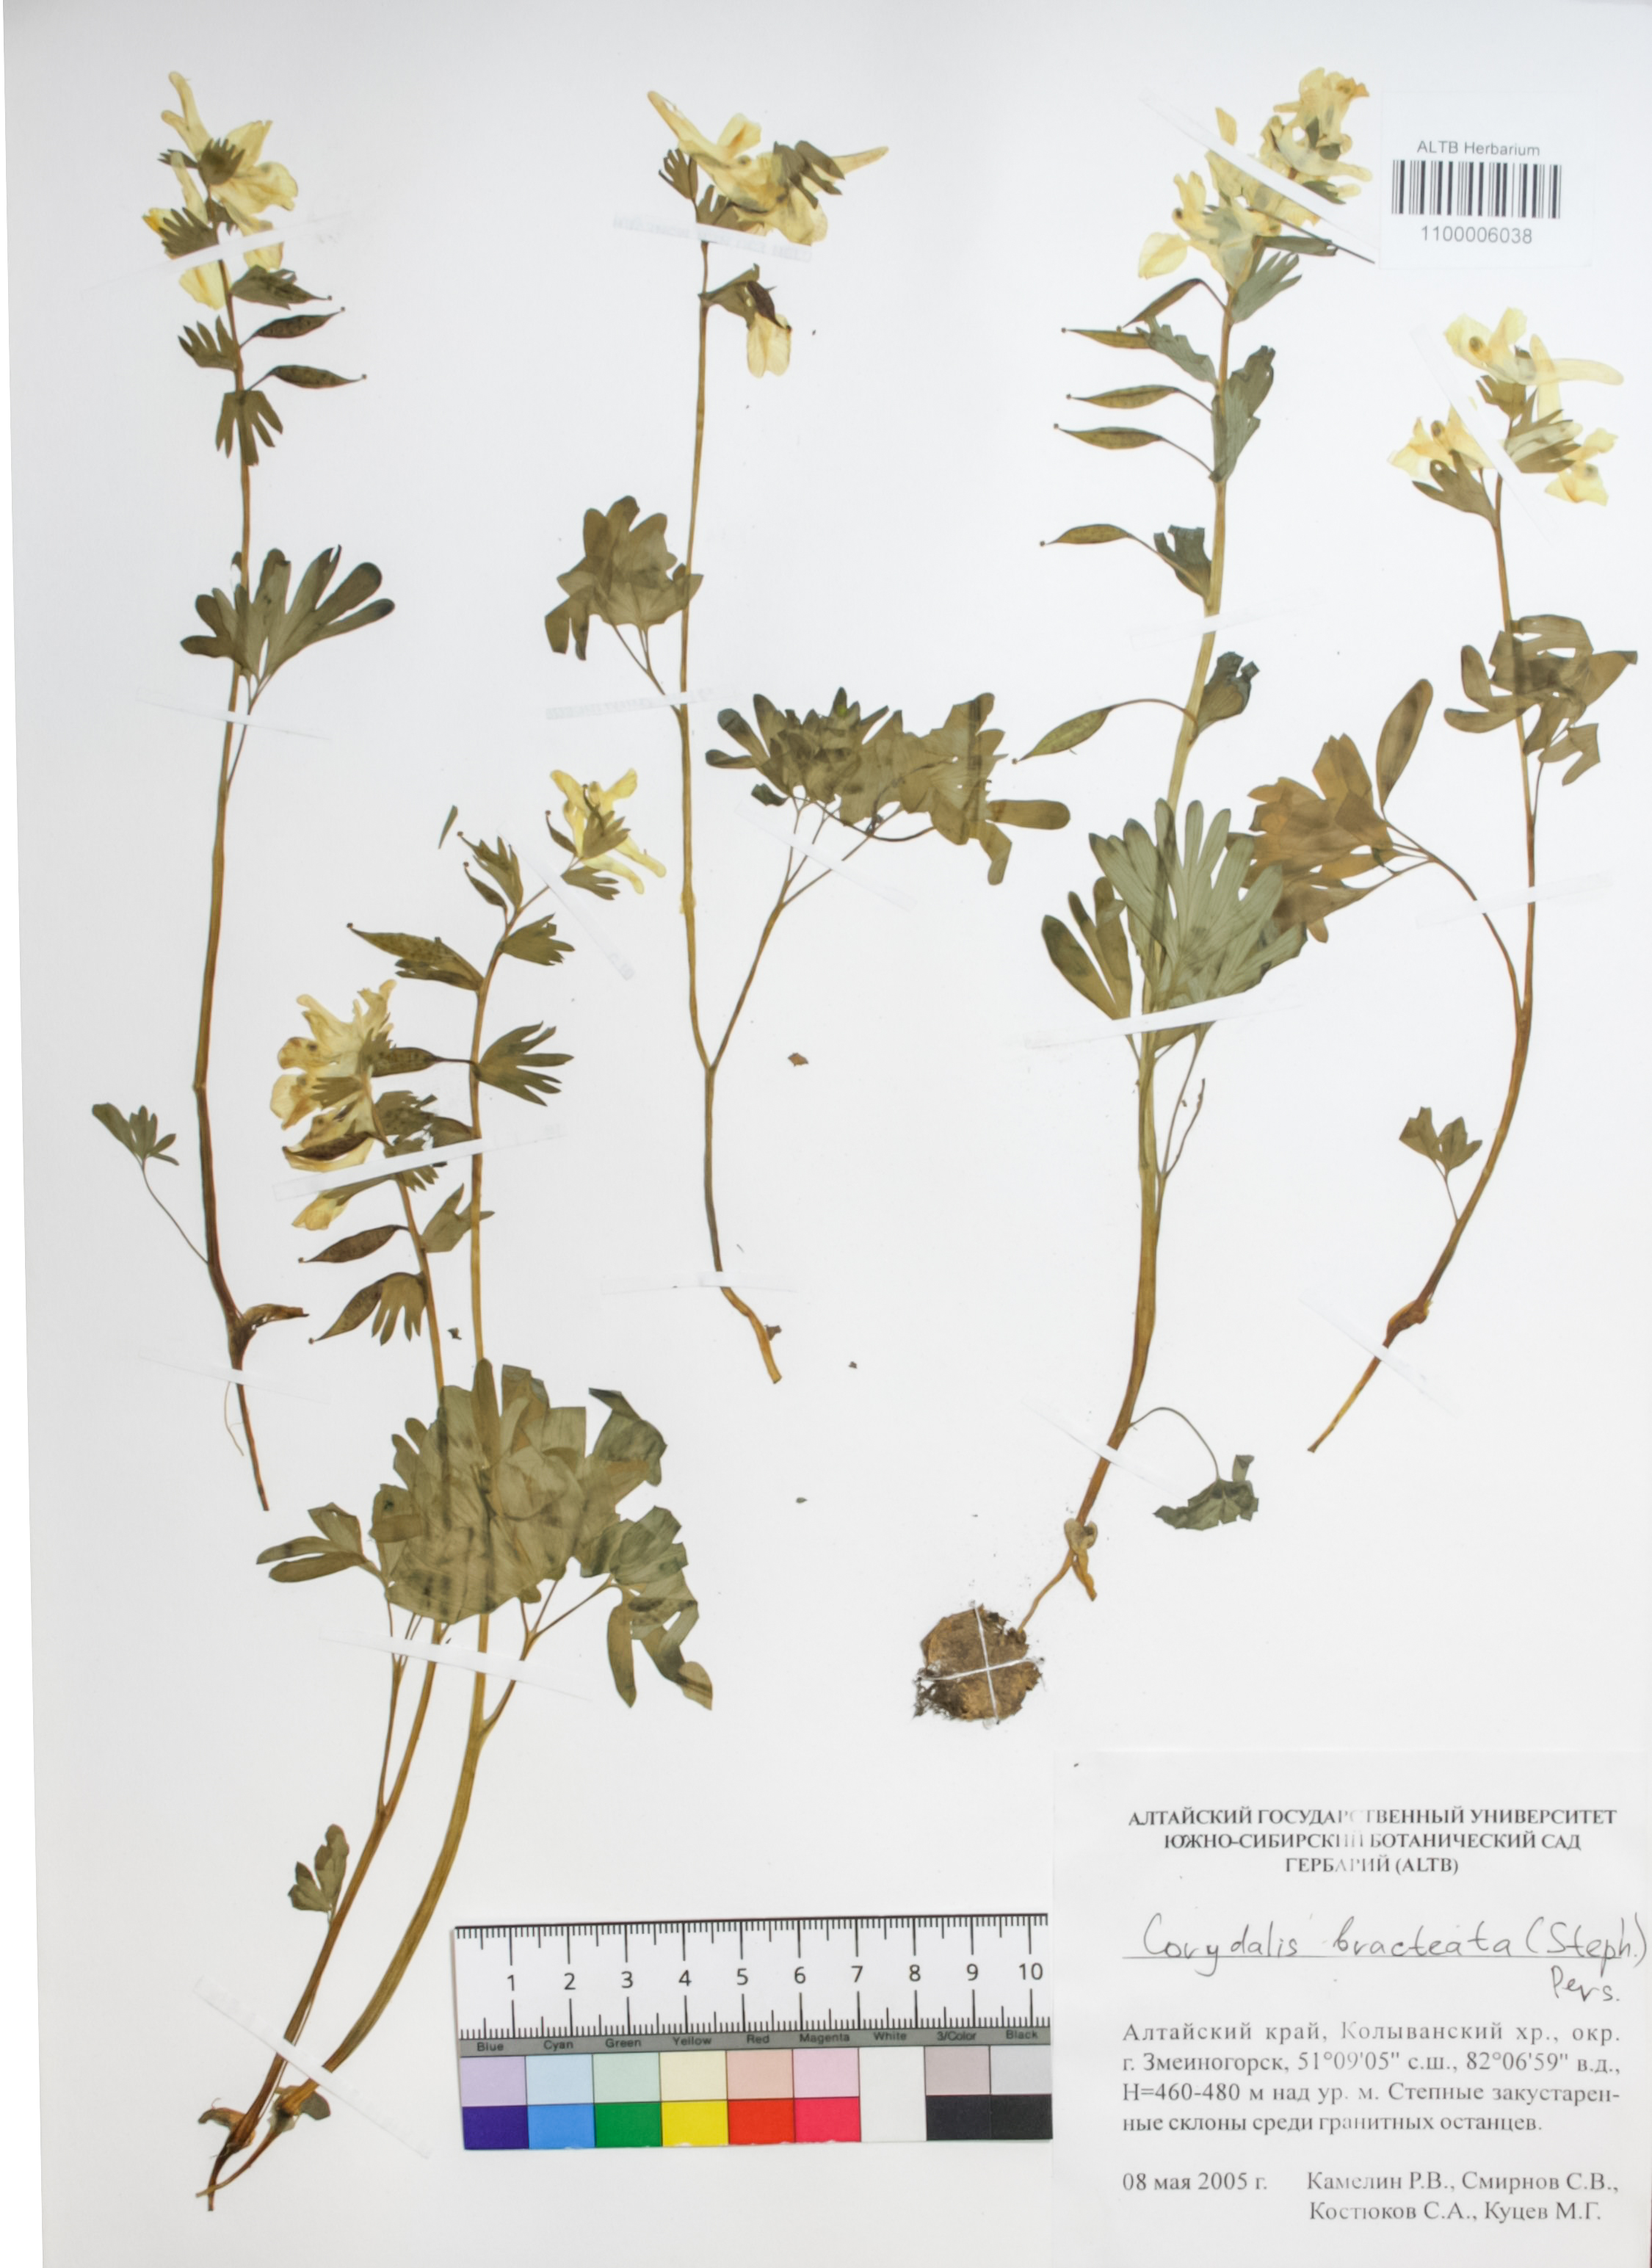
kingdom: Plantae
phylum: Tracheophyta
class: Magnoliopsida
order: Ranunculales
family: Papaveraceae
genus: Corydalis
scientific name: Corydalis bracteata
